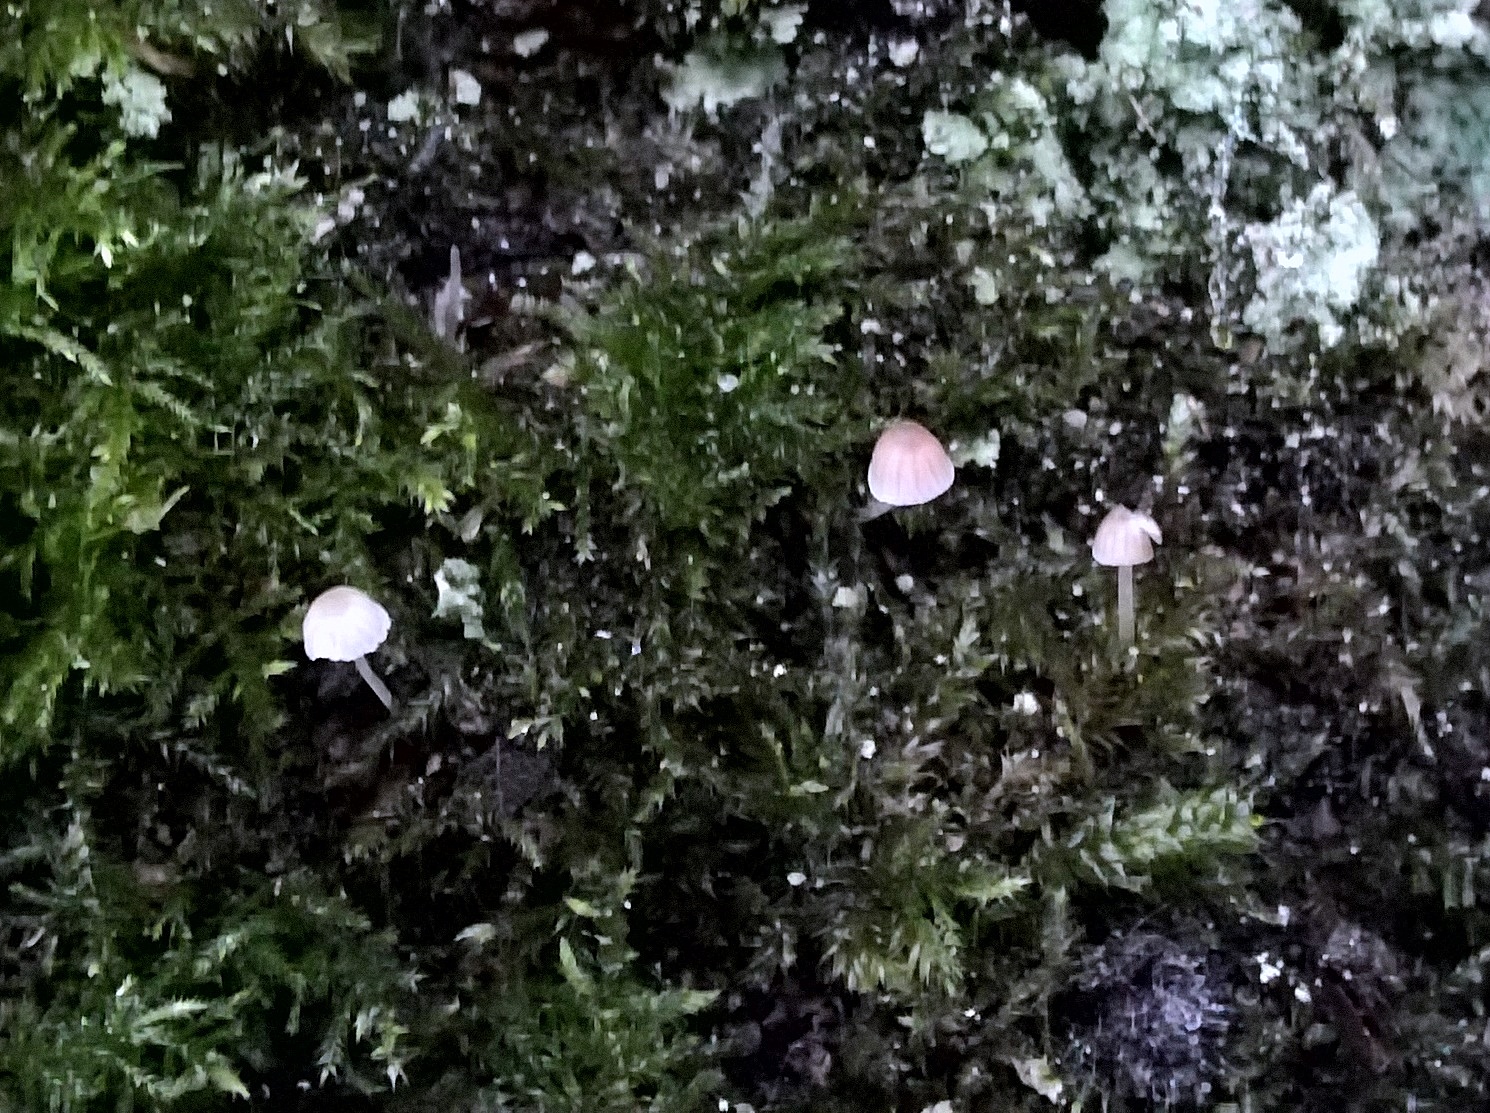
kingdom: Fungi
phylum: Basidiomycota
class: Agaricomycetes
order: Agaricales
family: Porotheleaceae
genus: Phloeomana
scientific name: Phloeomana
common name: huesvamp
